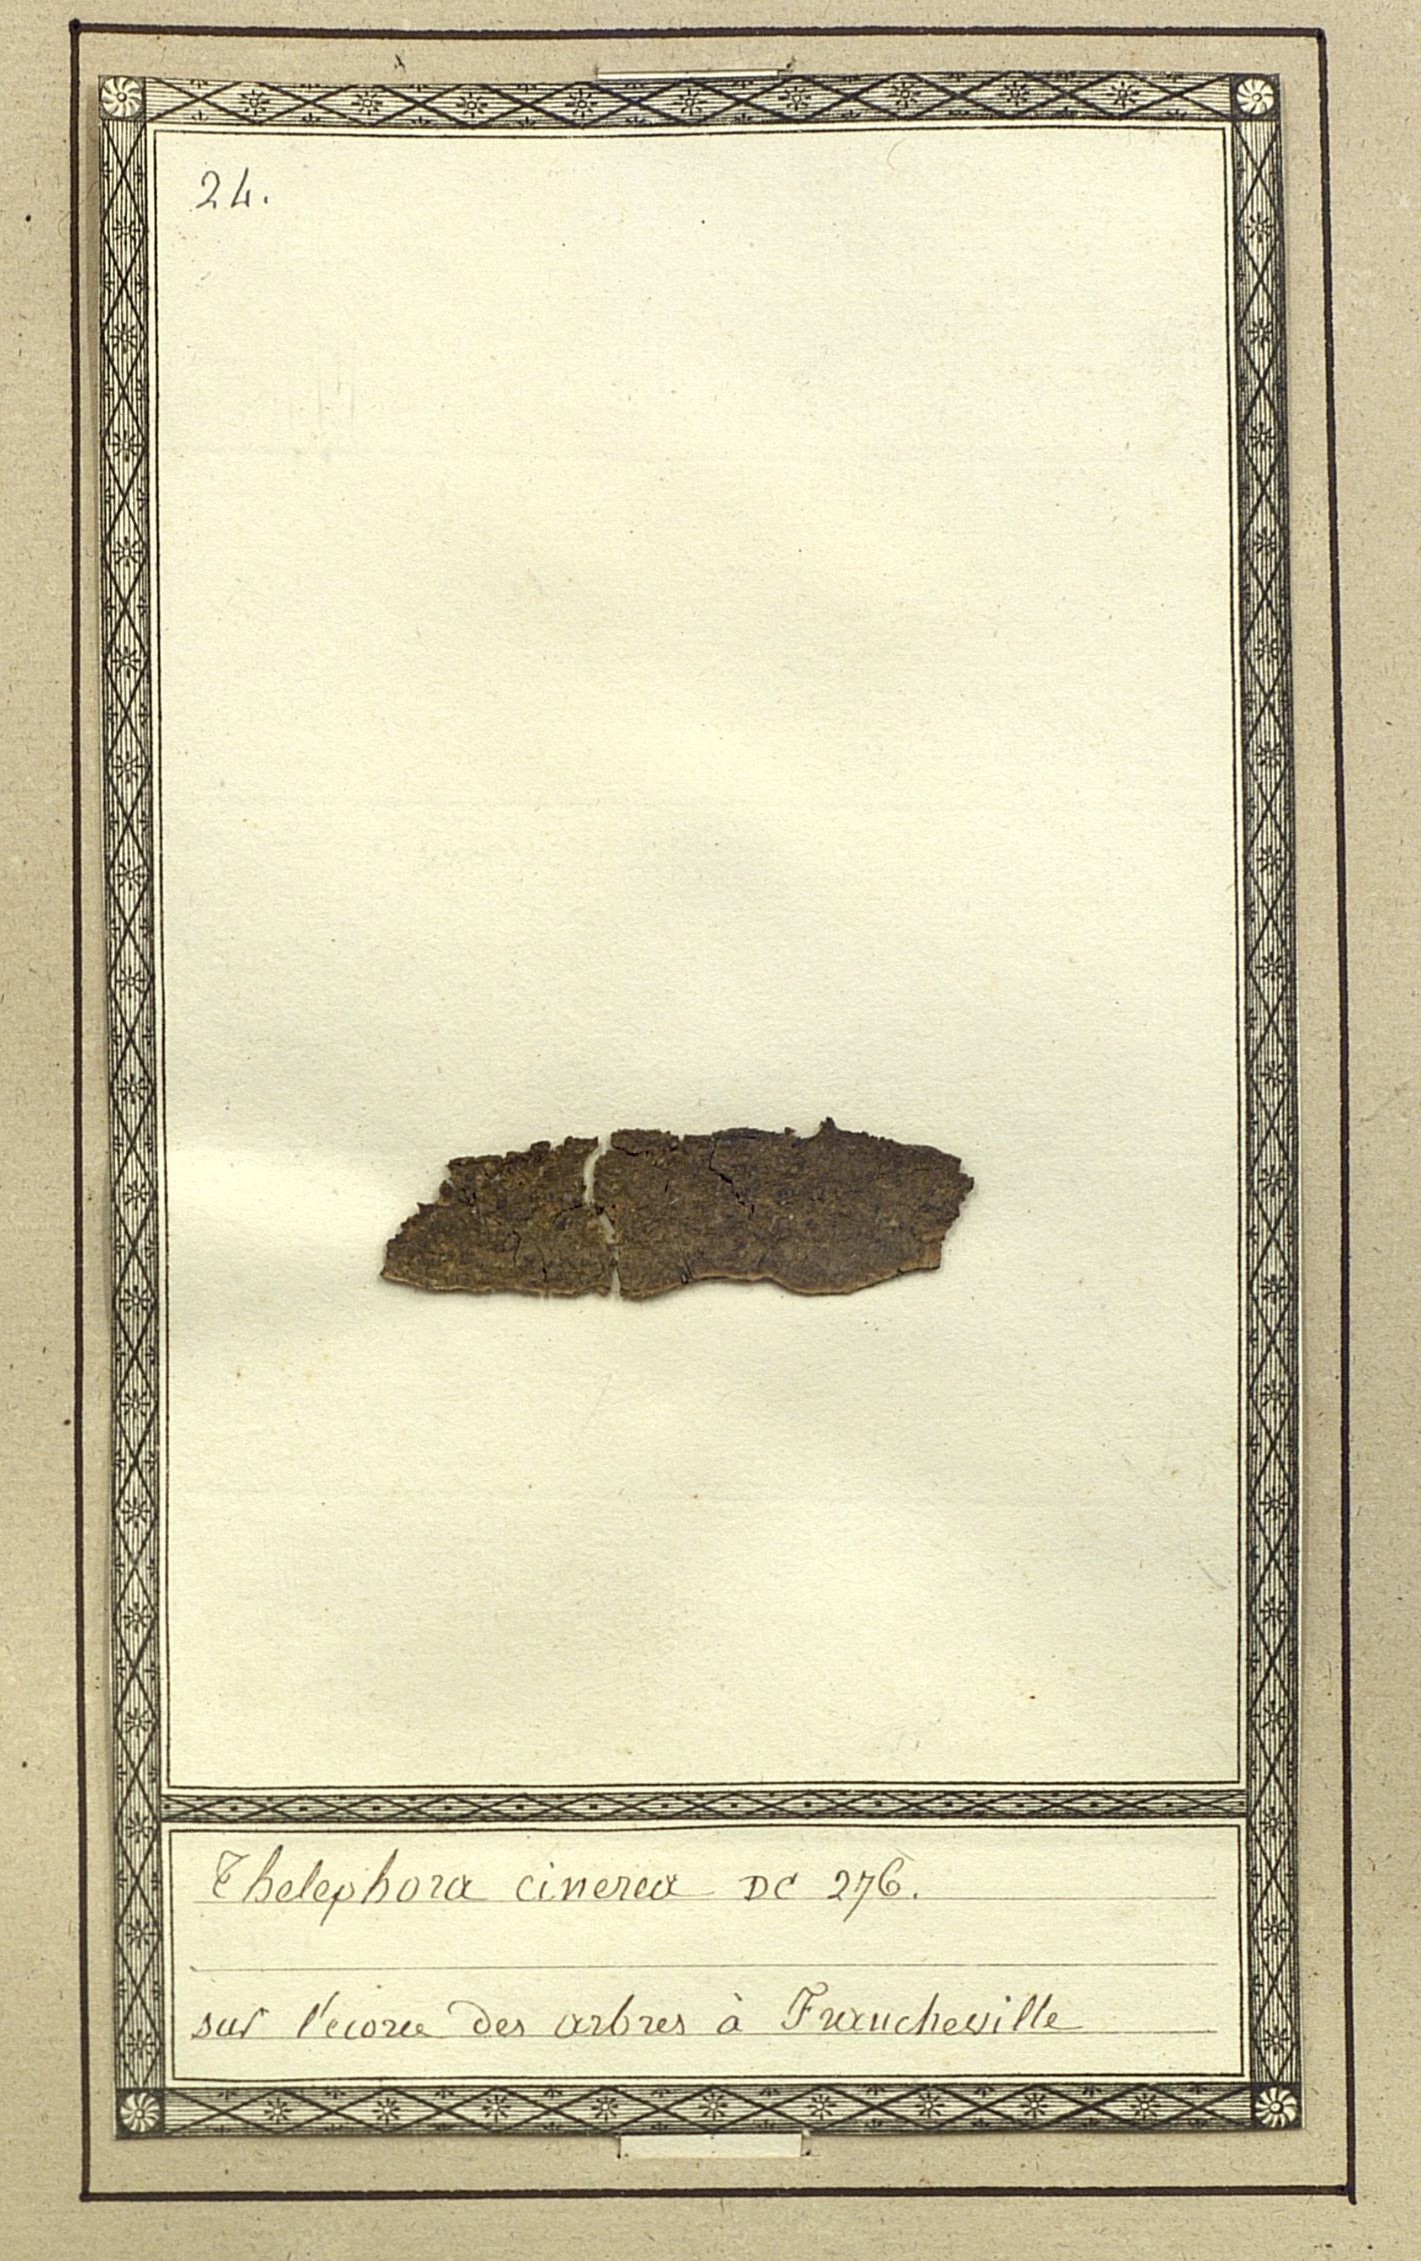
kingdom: Fungi
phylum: Basidiomycota
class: Agaricomycetes
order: Thelephorales
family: Thelephoraceae
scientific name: Thelephoraceae
